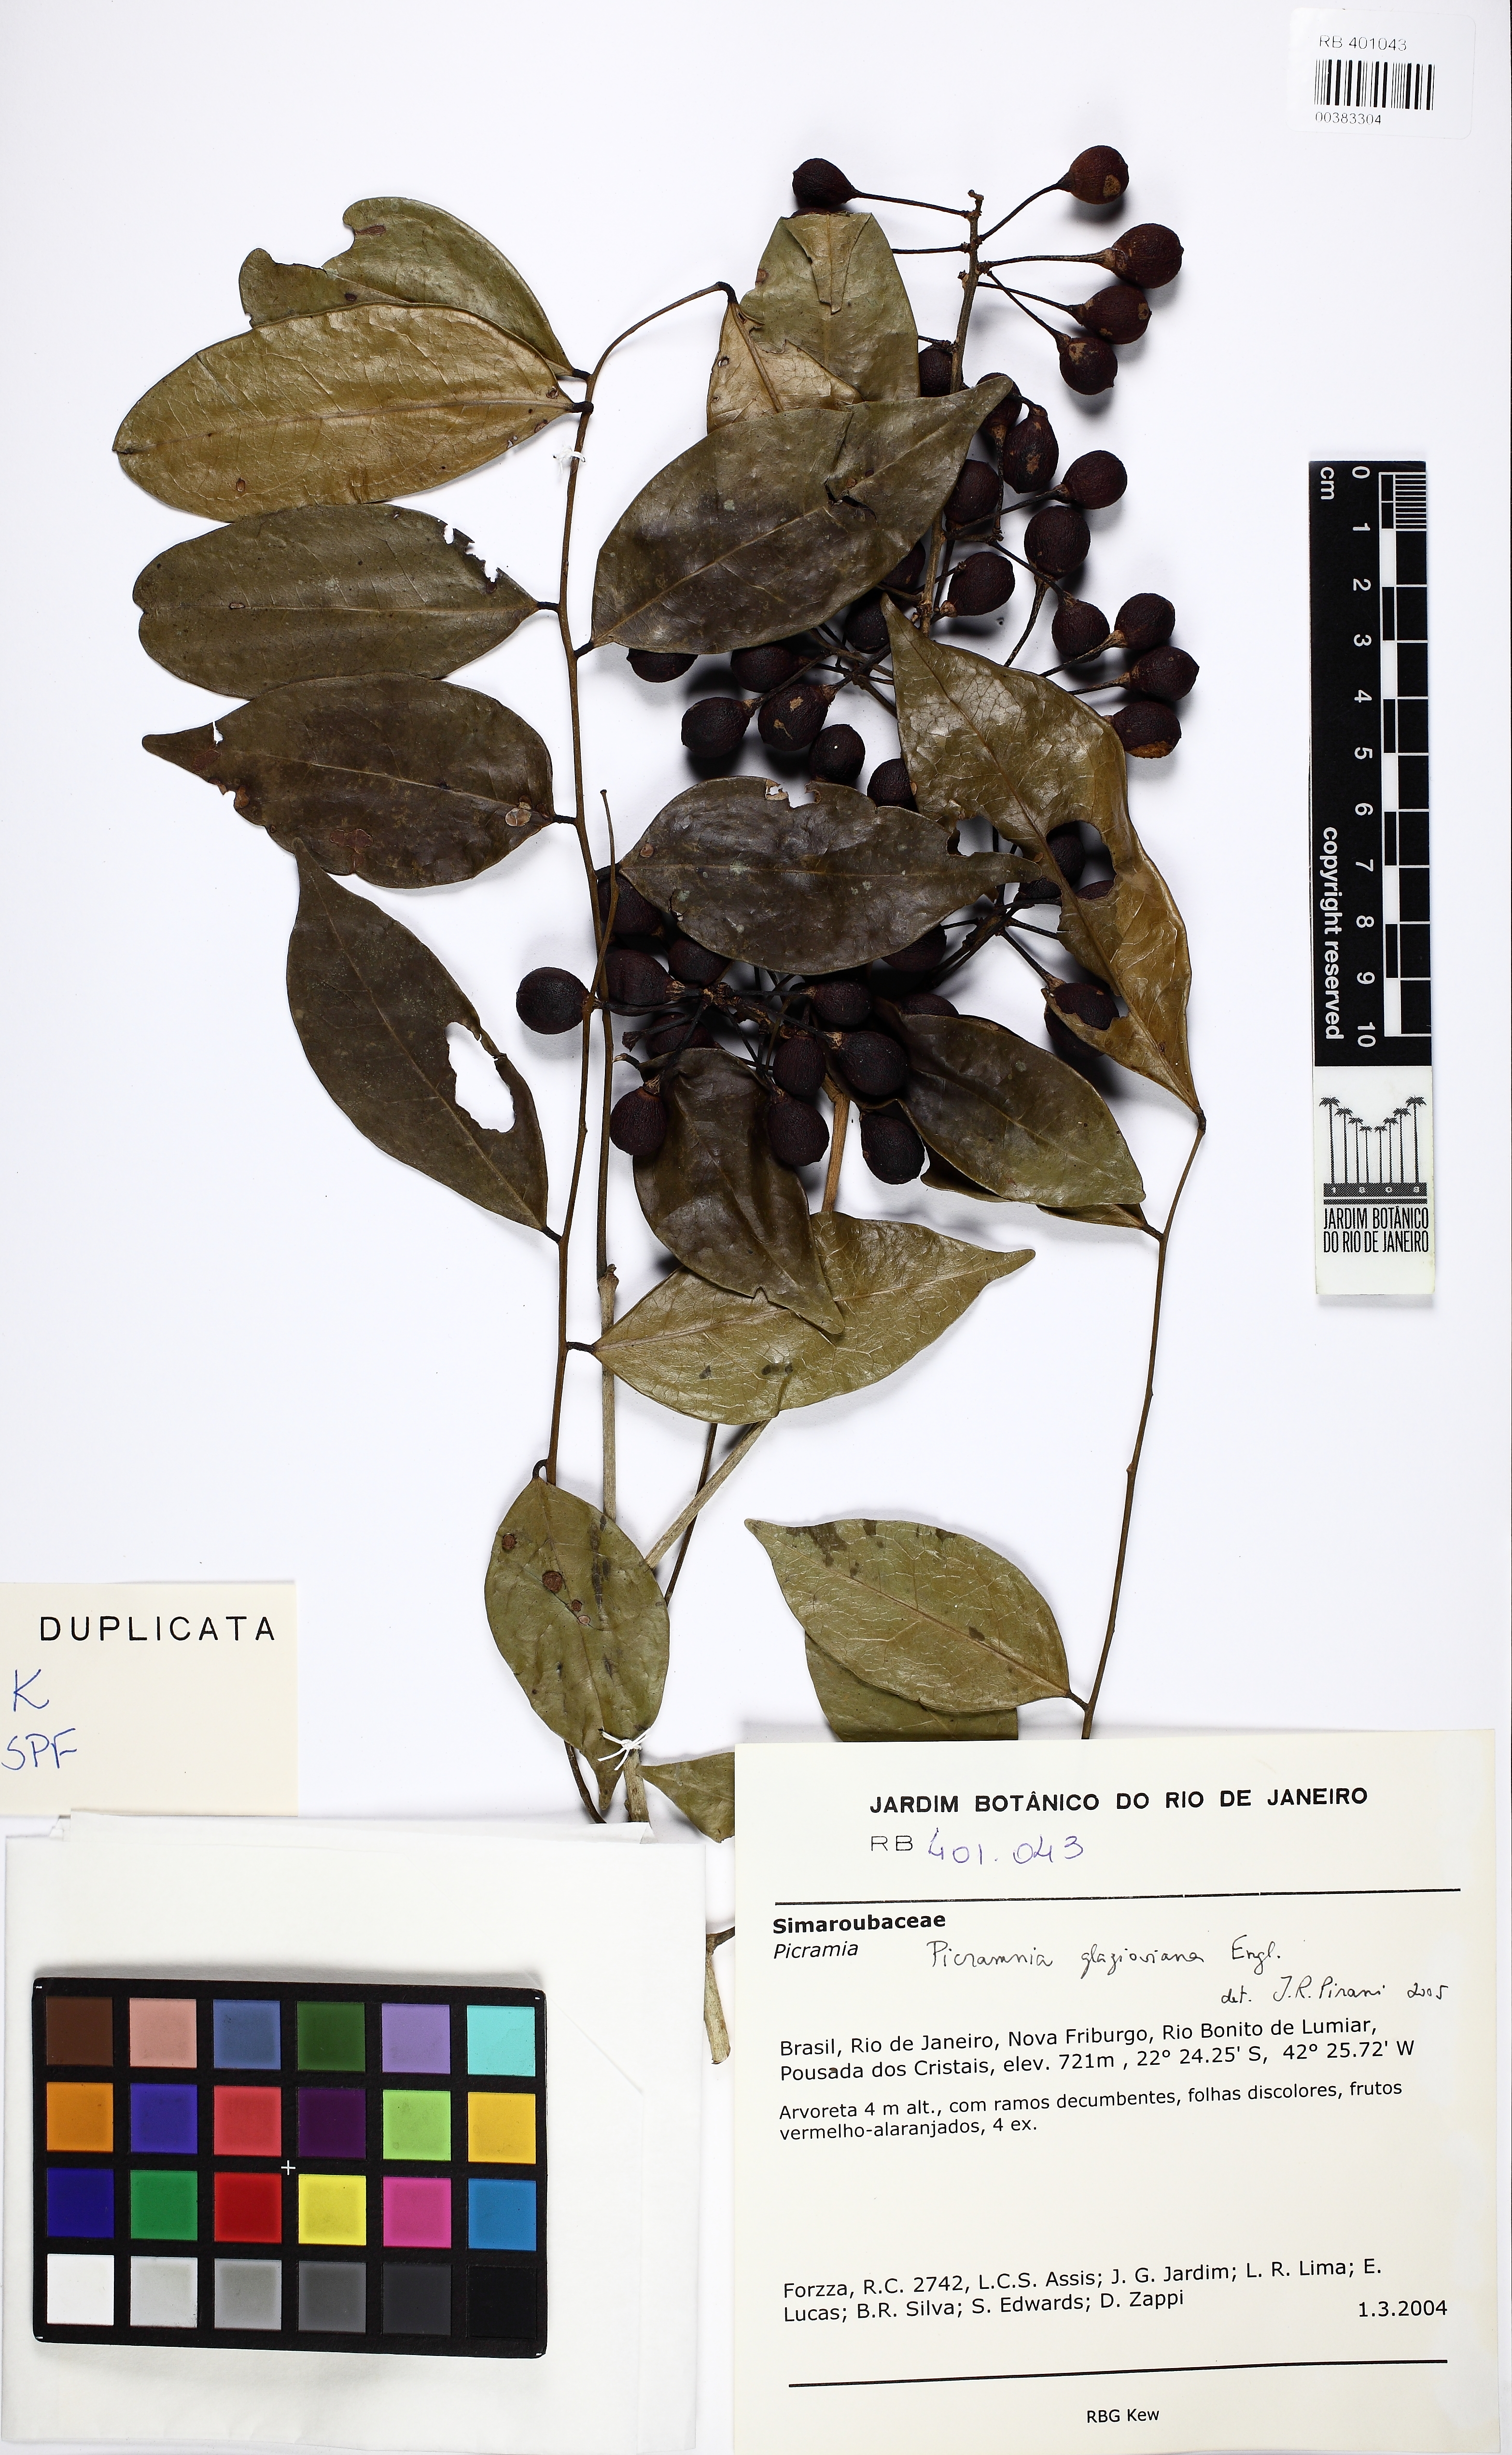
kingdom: Plantae
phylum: Tracheophyta
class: Magnoliopsida
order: Picramniales
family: Picramniaceae
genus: Picramnia
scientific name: Picramnia glazioviana
